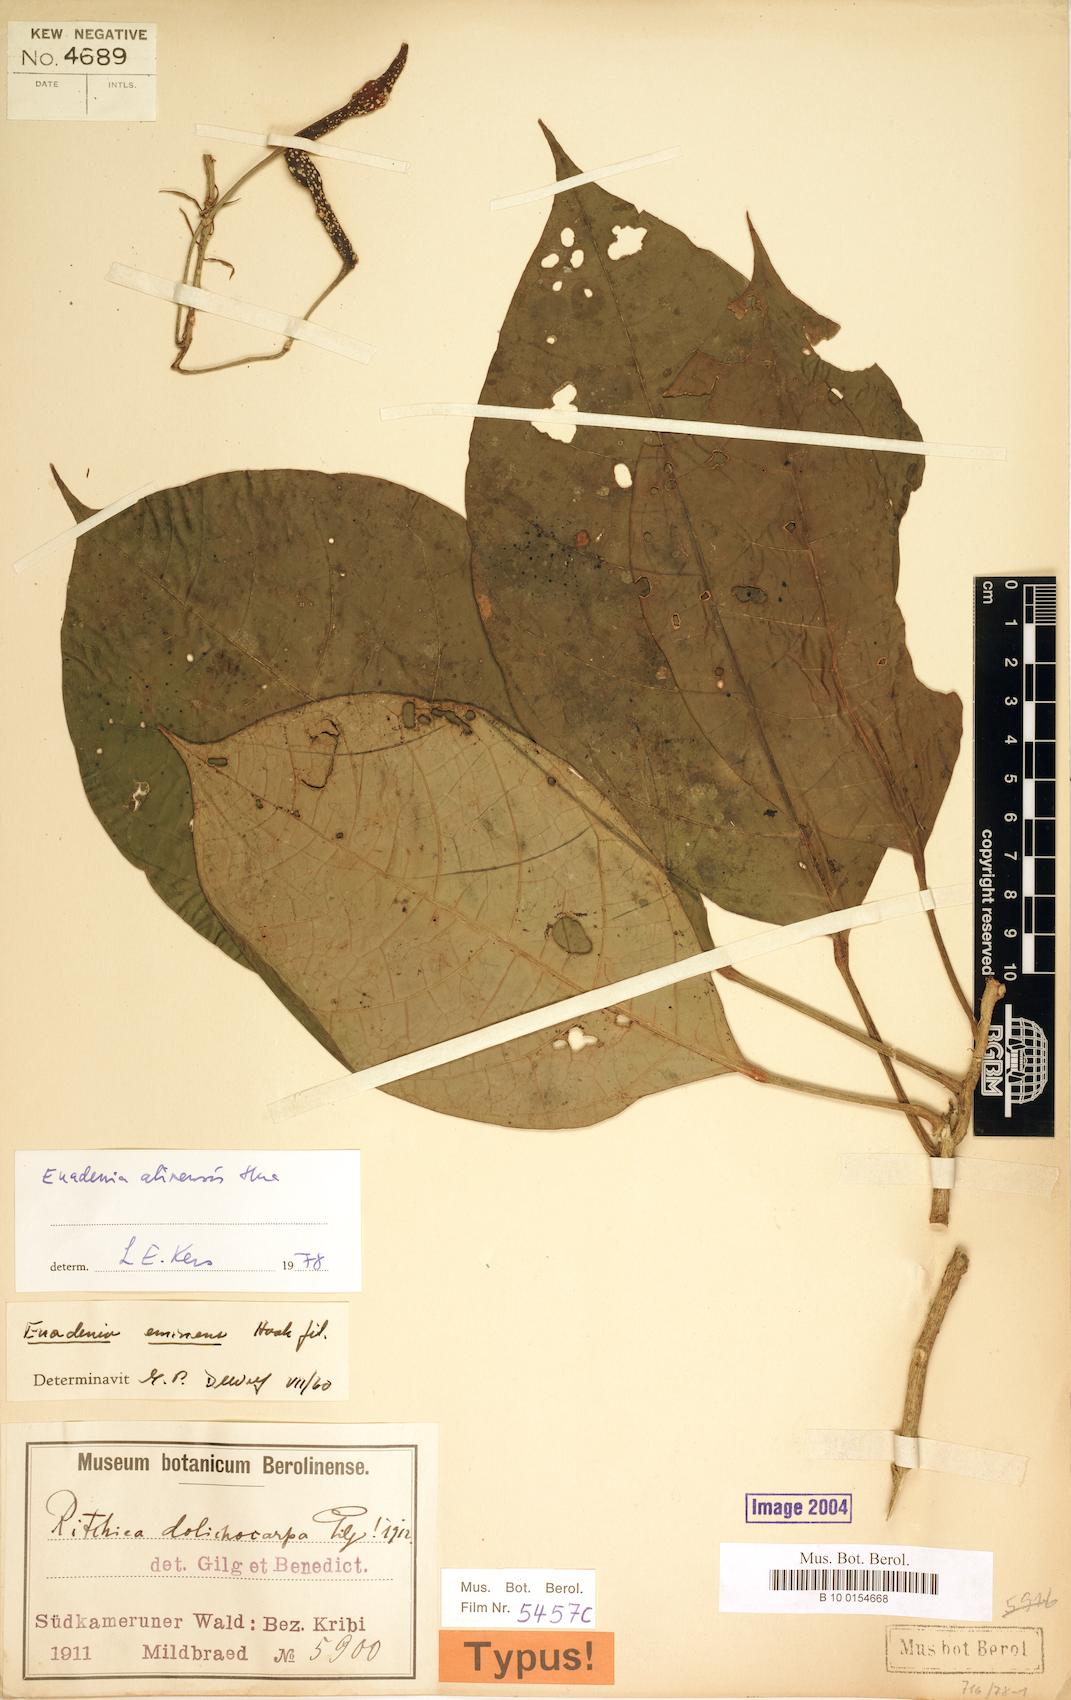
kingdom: Plantae
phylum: Tracheophyta
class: Magnoliopsida
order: Brassicales
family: Capparaceae
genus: Euadenia
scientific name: Euadenia eminens
